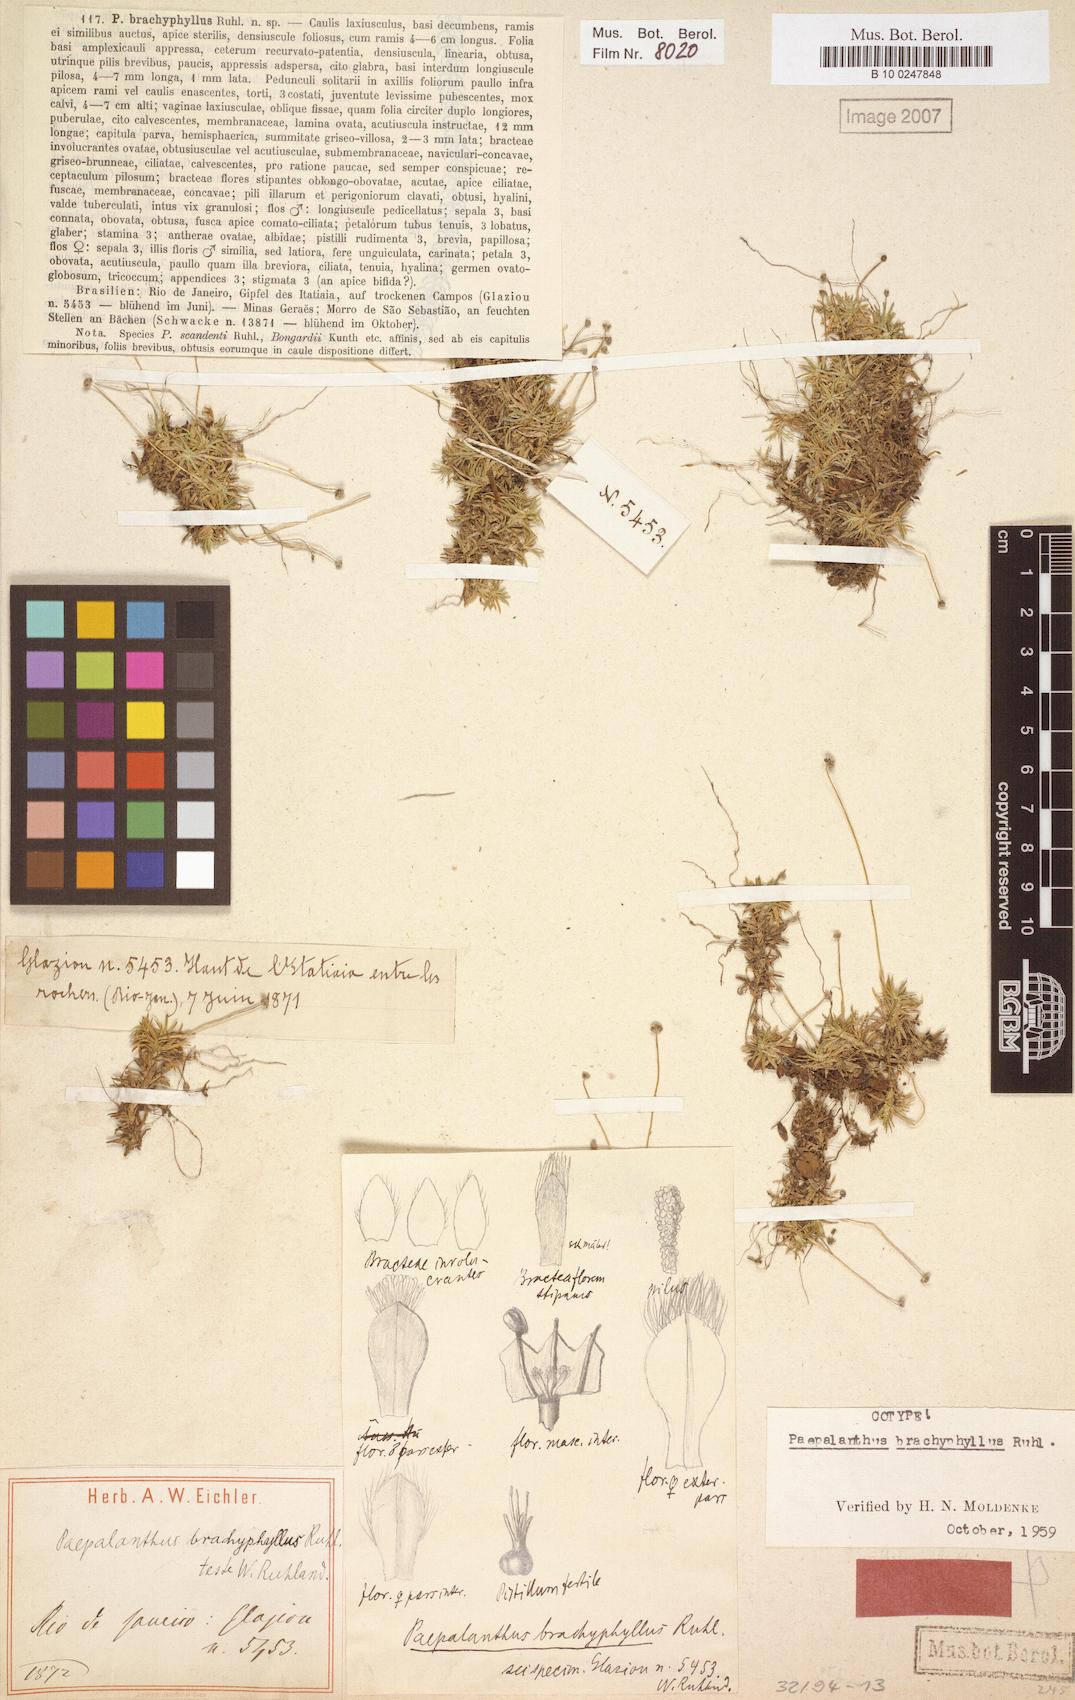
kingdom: Plantae
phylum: Tracheophyta
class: Liliopsida
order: Poales
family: Eriocaulaceae
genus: Paepalanthus
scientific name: Paepalanthus brachyphyllus
